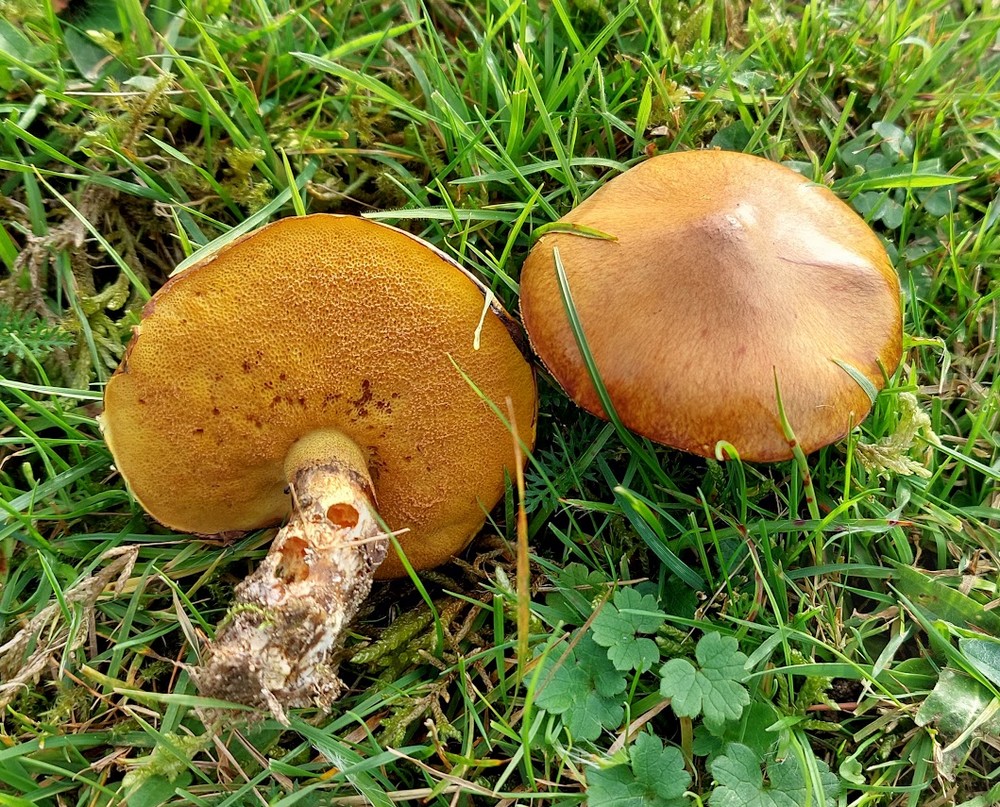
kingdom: Fungi
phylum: Basidiomycota
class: Agaricomycetes
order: Boletales
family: Suillaceae
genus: Suillus
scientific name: Suillus luteus
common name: brungul slimrørhat
